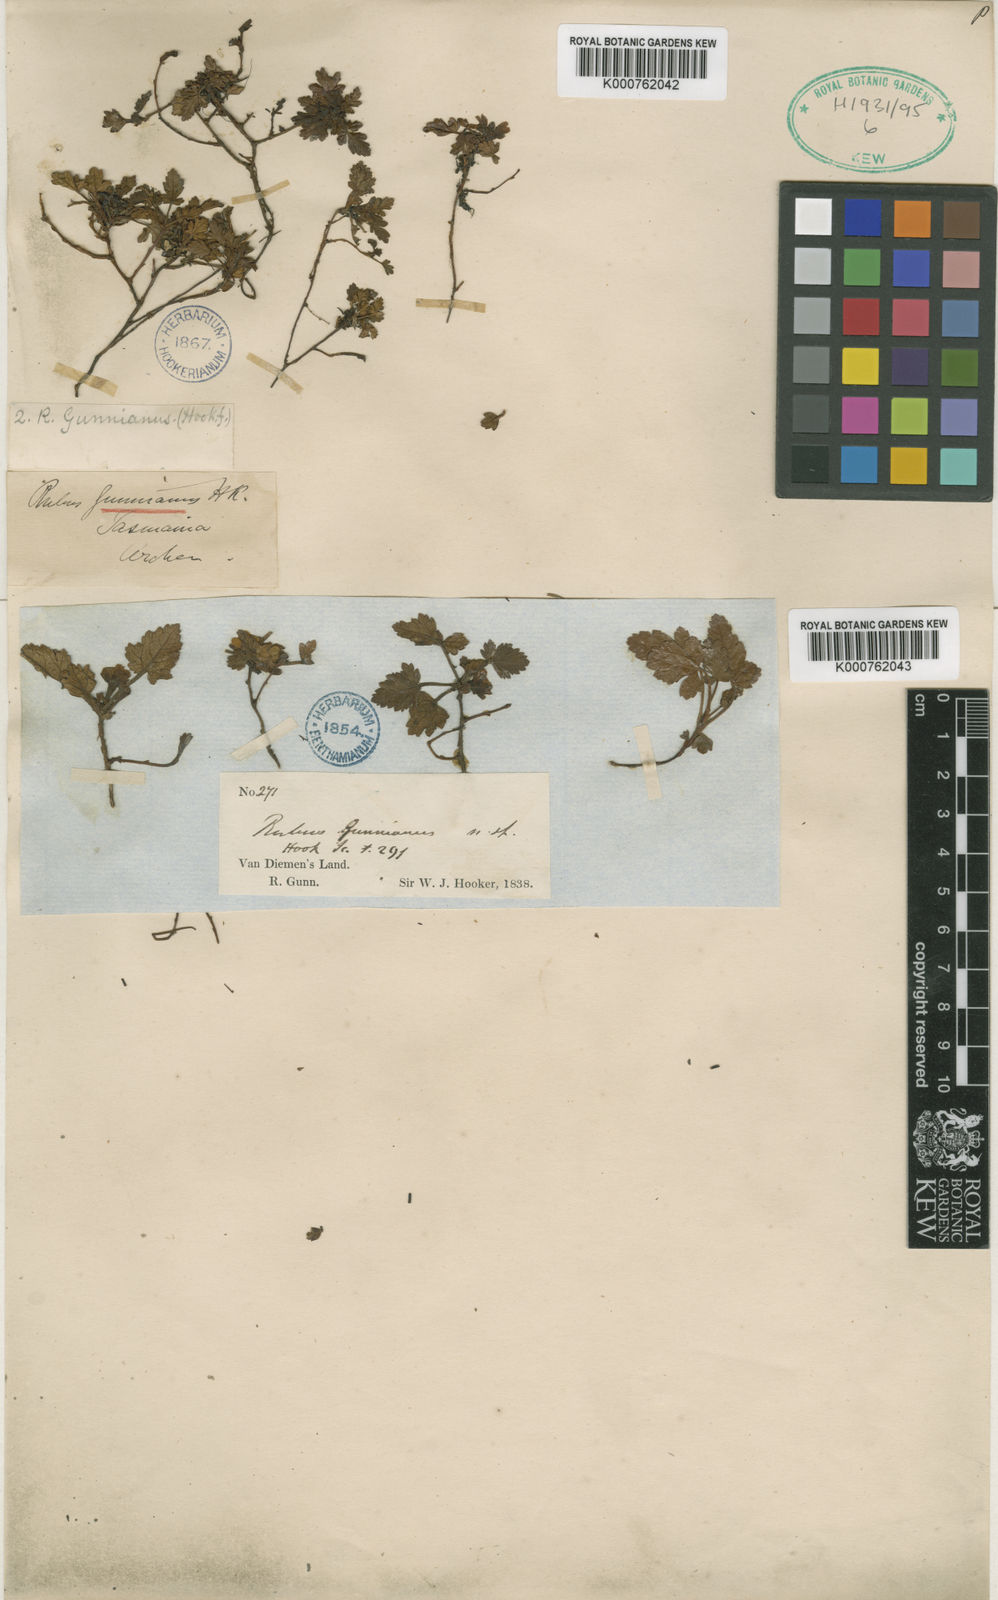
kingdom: Plantae
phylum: Tracheophyta
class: Magnoliopsida
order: Rosales
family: Rosaceae
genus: Rubus
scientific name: Rubus gunnianus
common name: Mountain raspberry
